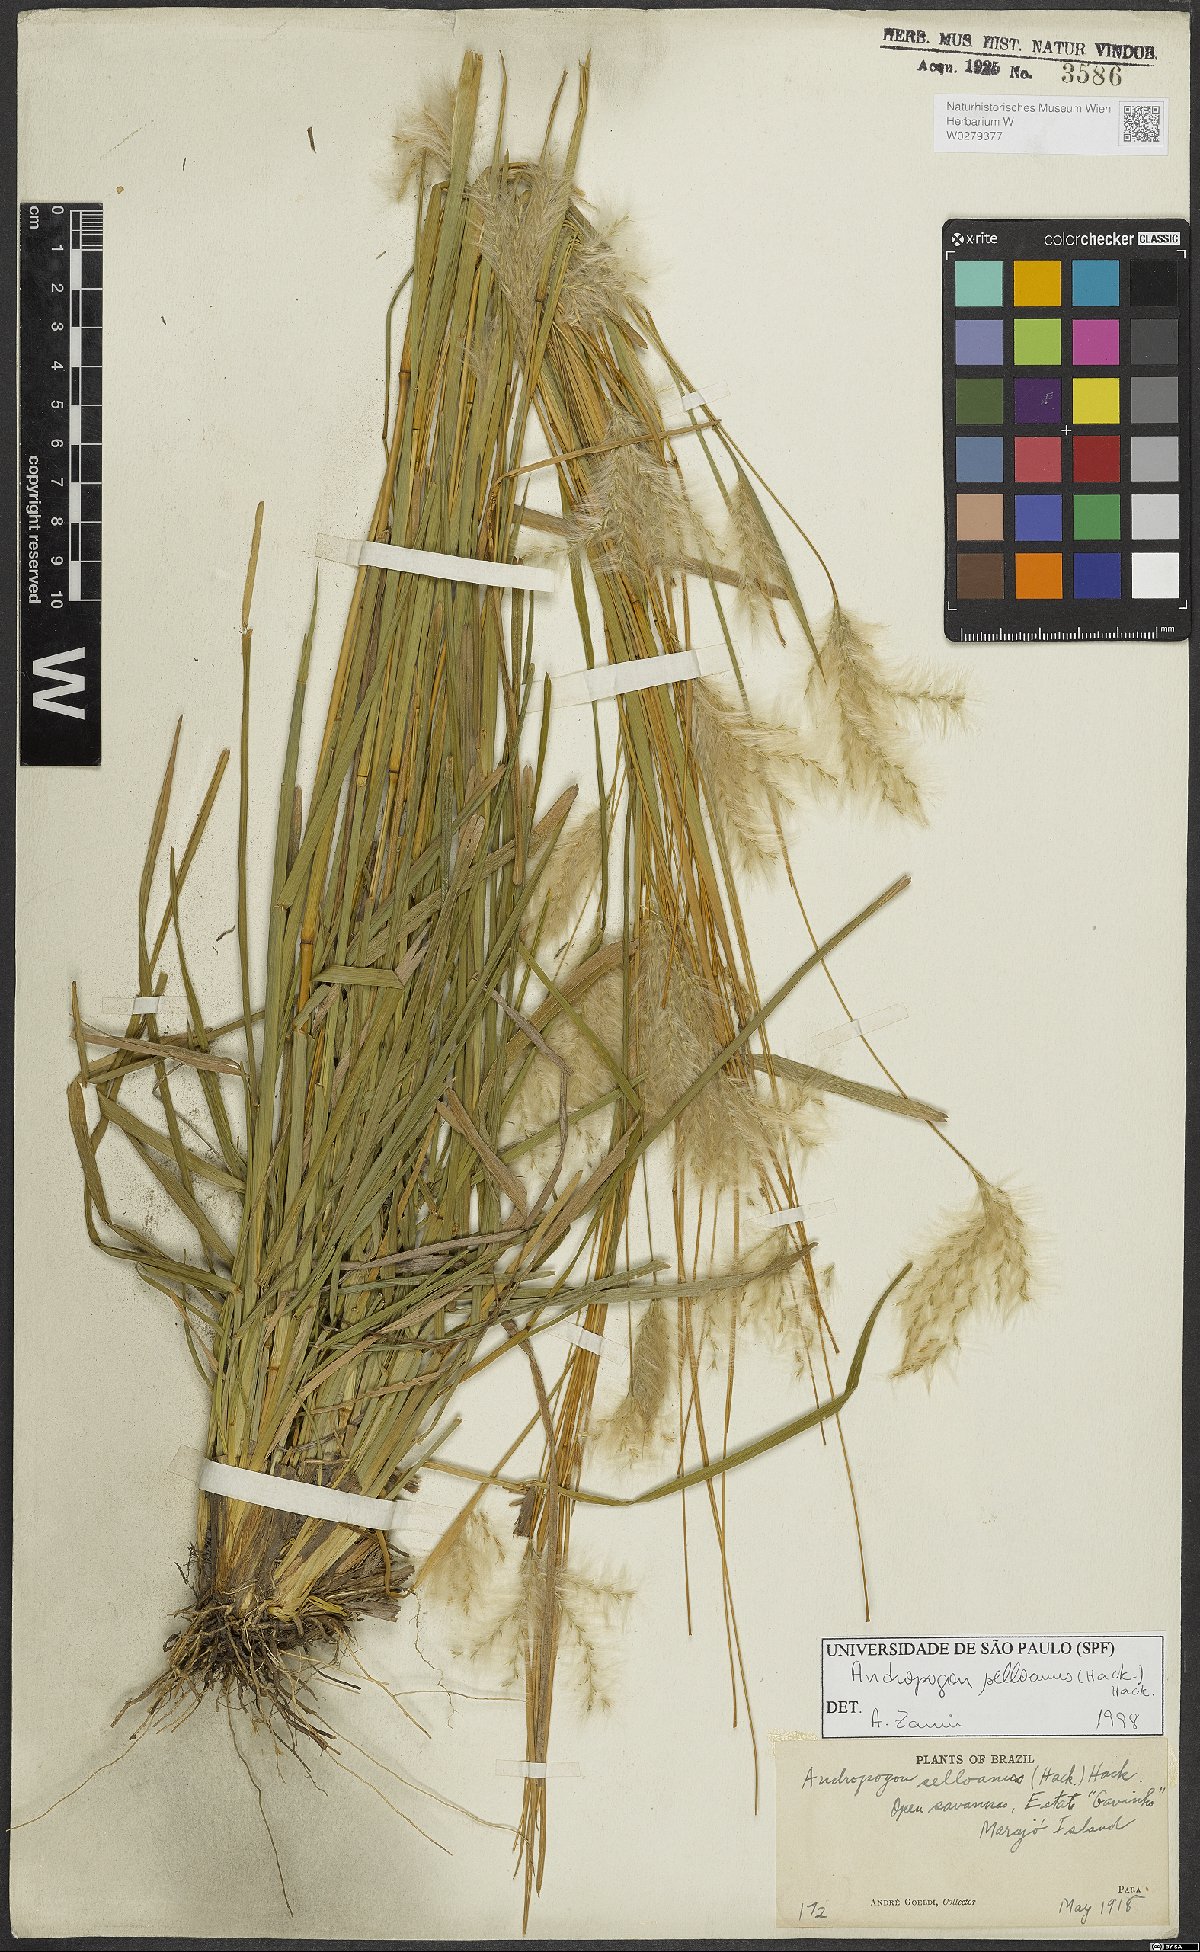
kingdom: Plantae
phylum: Tracheophyta
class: Liliopsida
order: Poales
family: Poaceae
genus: Andropogon
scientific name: Andropogon selloanus
